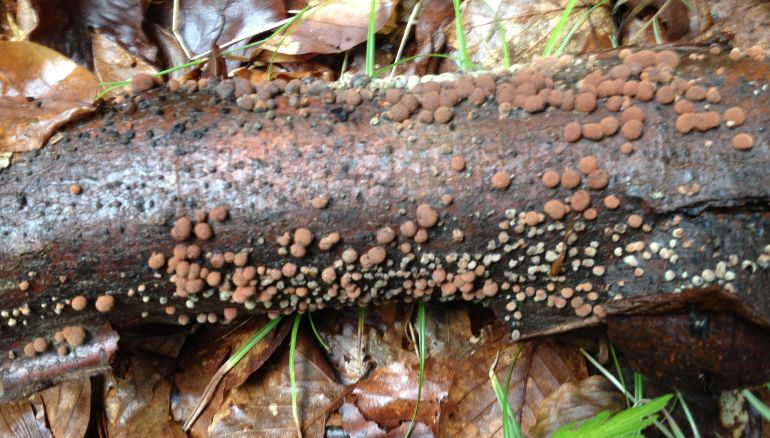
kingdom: Fungi
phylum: Ascomycota
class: Sordariomycetes
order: Xylariales
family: Hypoxylaceae
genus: Hypoxylon
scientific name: Hypoxylon fragiforme
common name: kuljordbær
